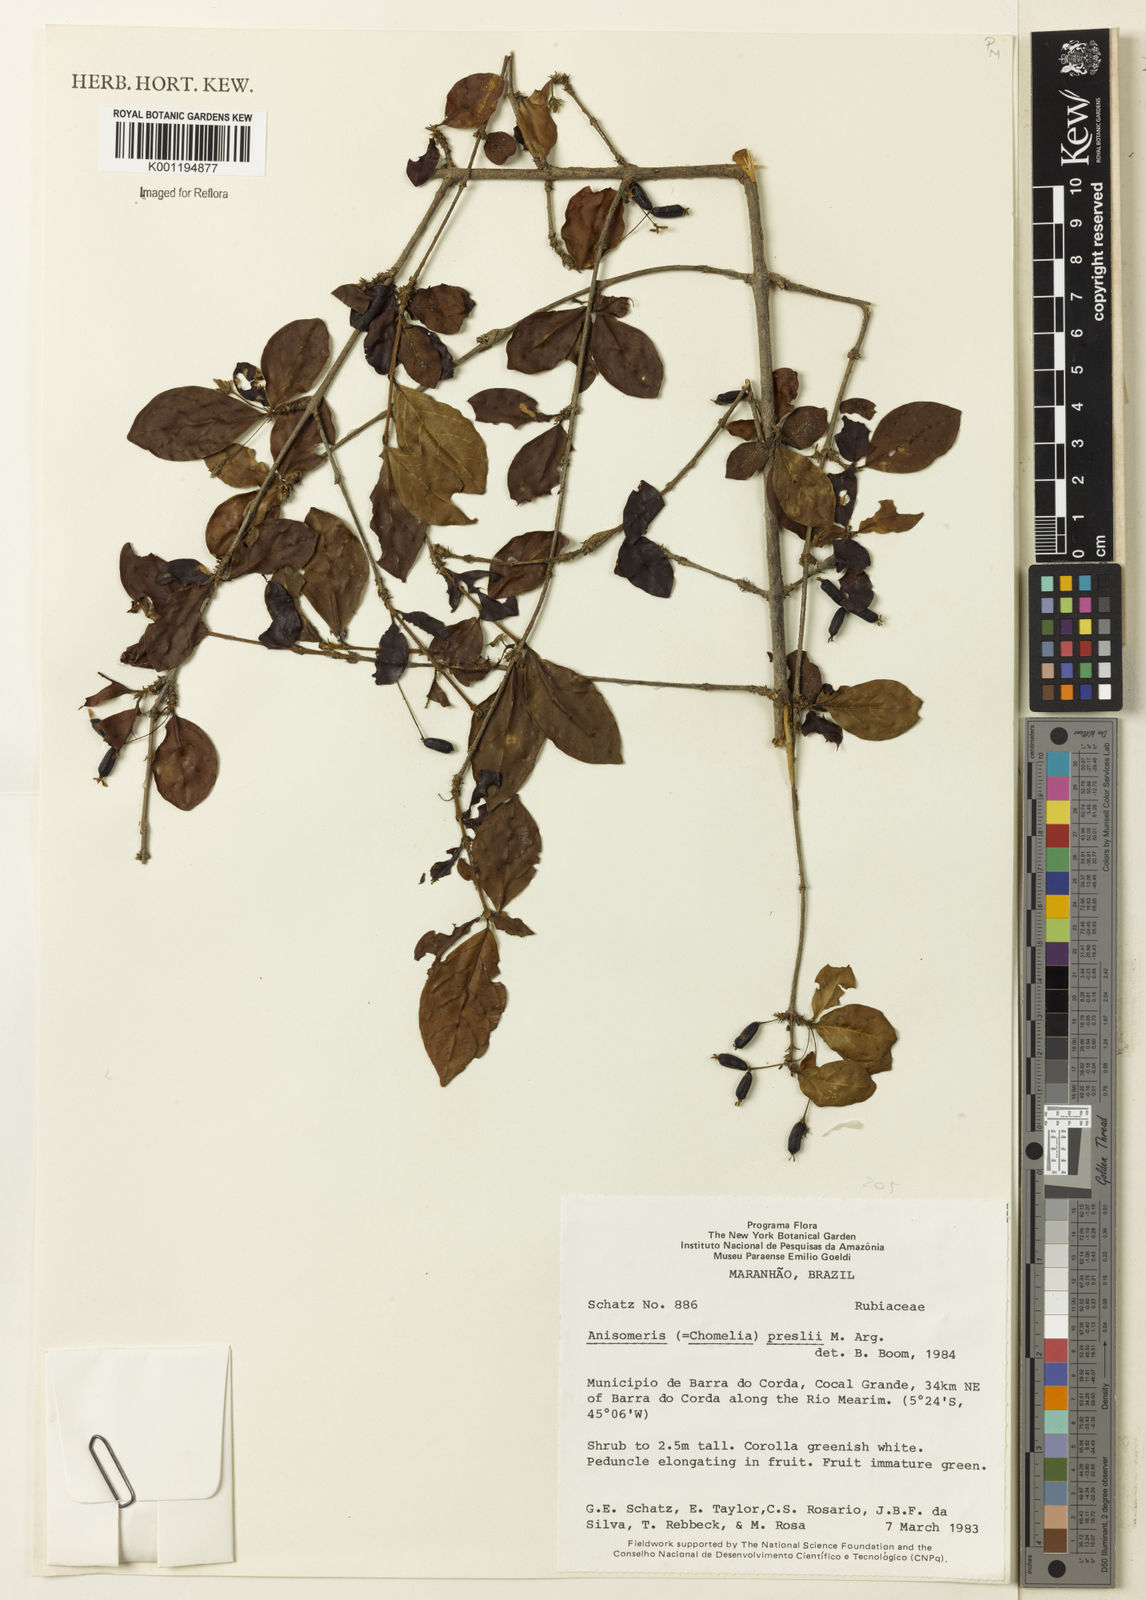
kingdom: Plantae
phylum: Tracheophyta
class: Magnoliopsida
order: Gentianales
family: Rubiaceae
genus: Chomelia
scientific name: Chomelia
